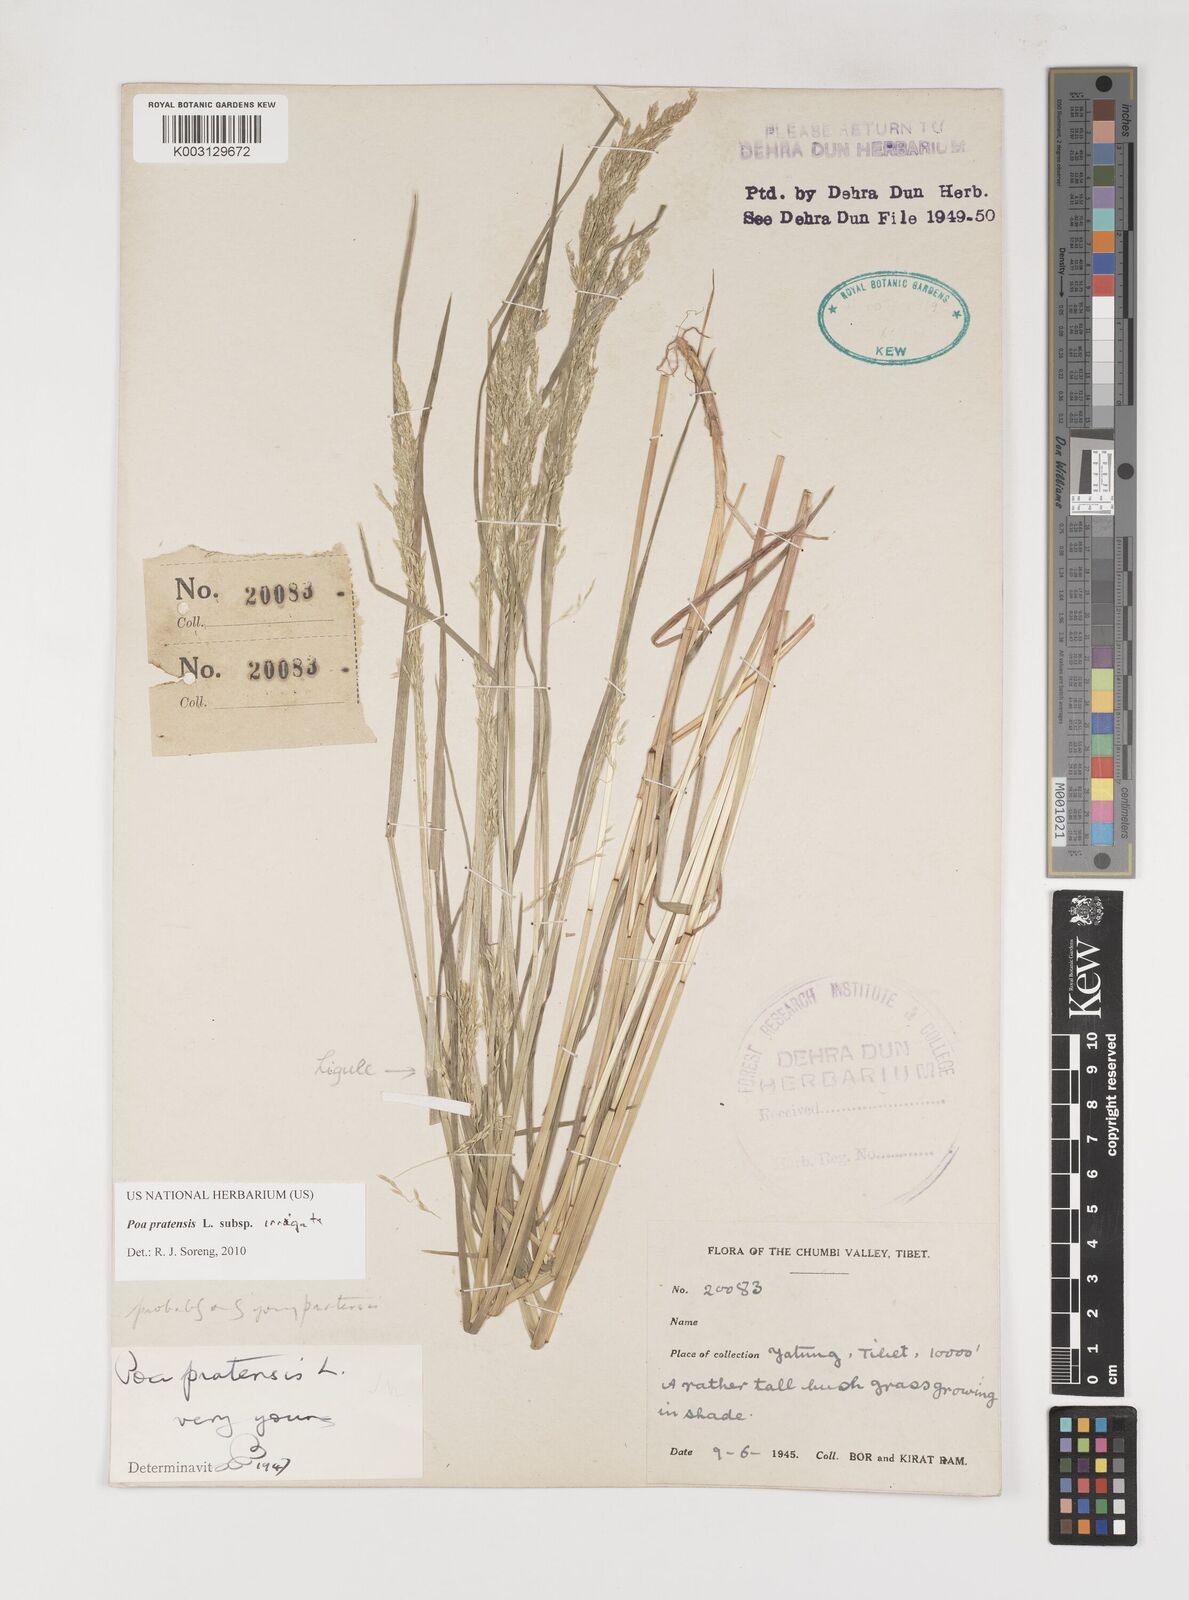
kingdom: Plantae
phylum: Tracheophyta
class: Liliopsida
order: Poales
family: Poaceae
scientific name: Poaceae
